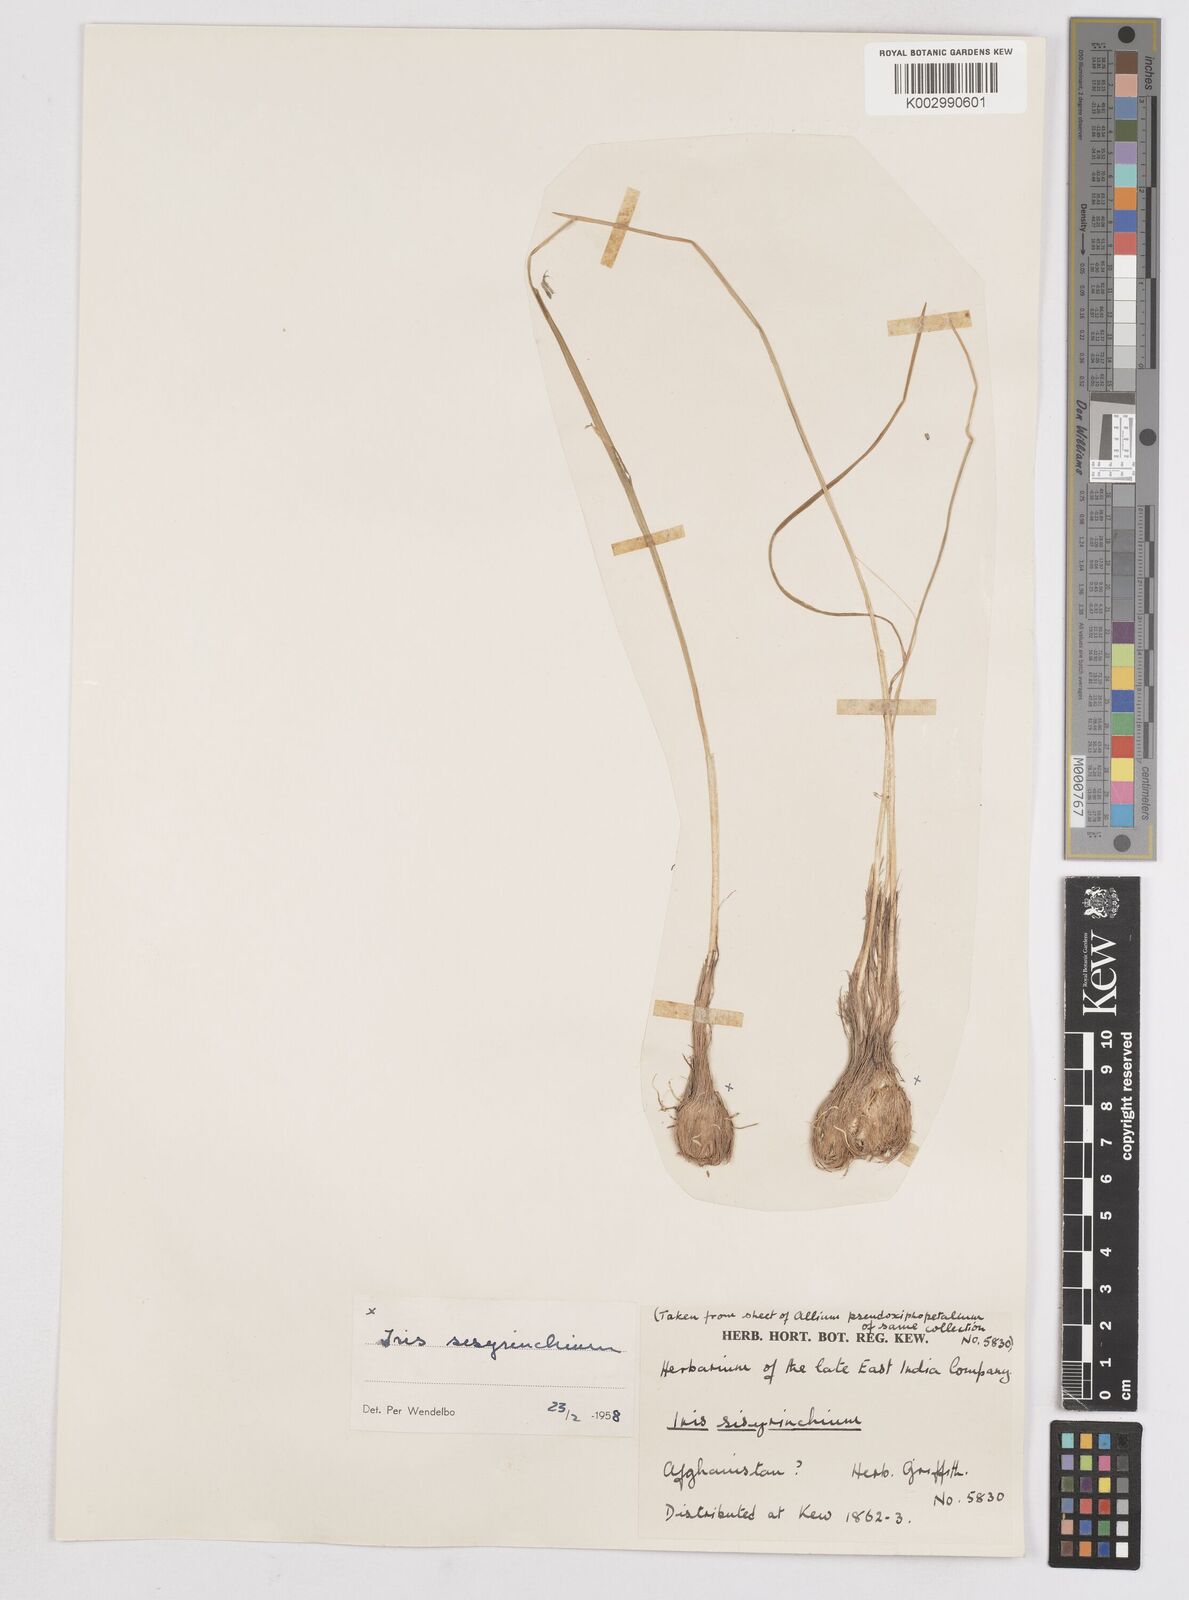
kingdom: Plantae
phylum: Tracheophyta
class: Liliopsida
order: Asparagales
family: Iridaceae
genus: Moraea
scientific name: Moraea sisyrinchium
